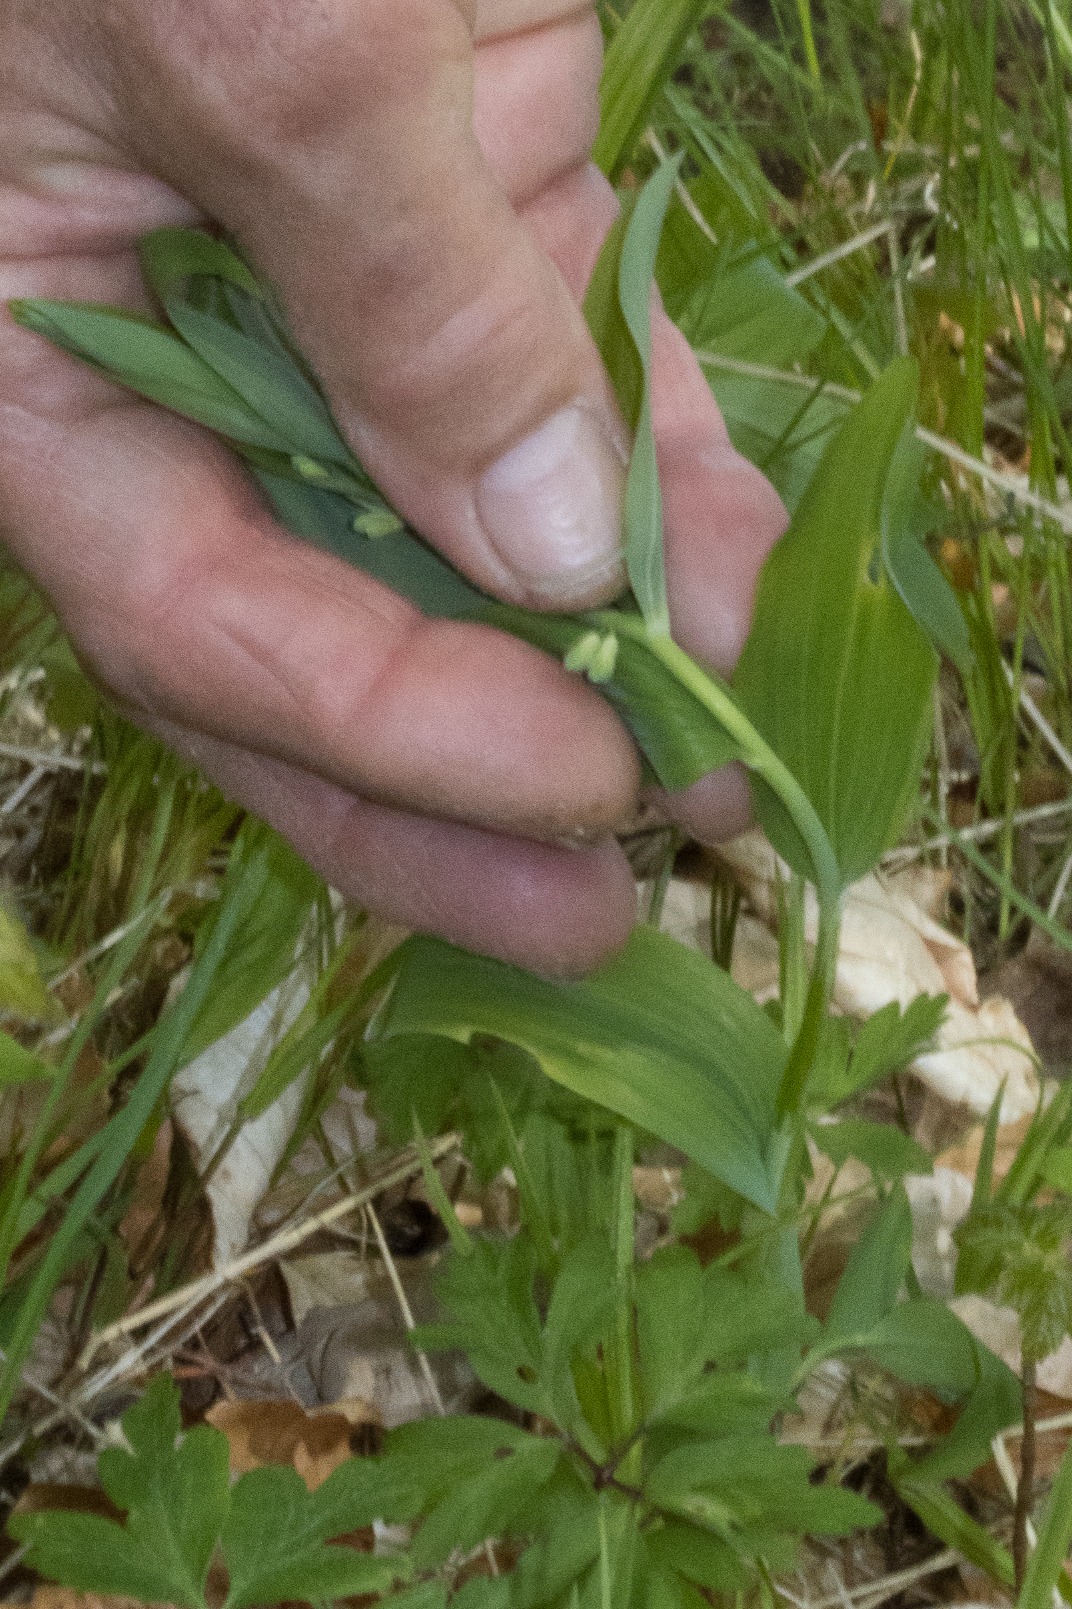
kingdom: Plantae
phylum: Tracheophyta
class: Liliopsida
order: Asparagales
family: Asparagaceae
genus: Polygonatum
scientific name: Polygonatum multiflorum
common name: Stor konval
